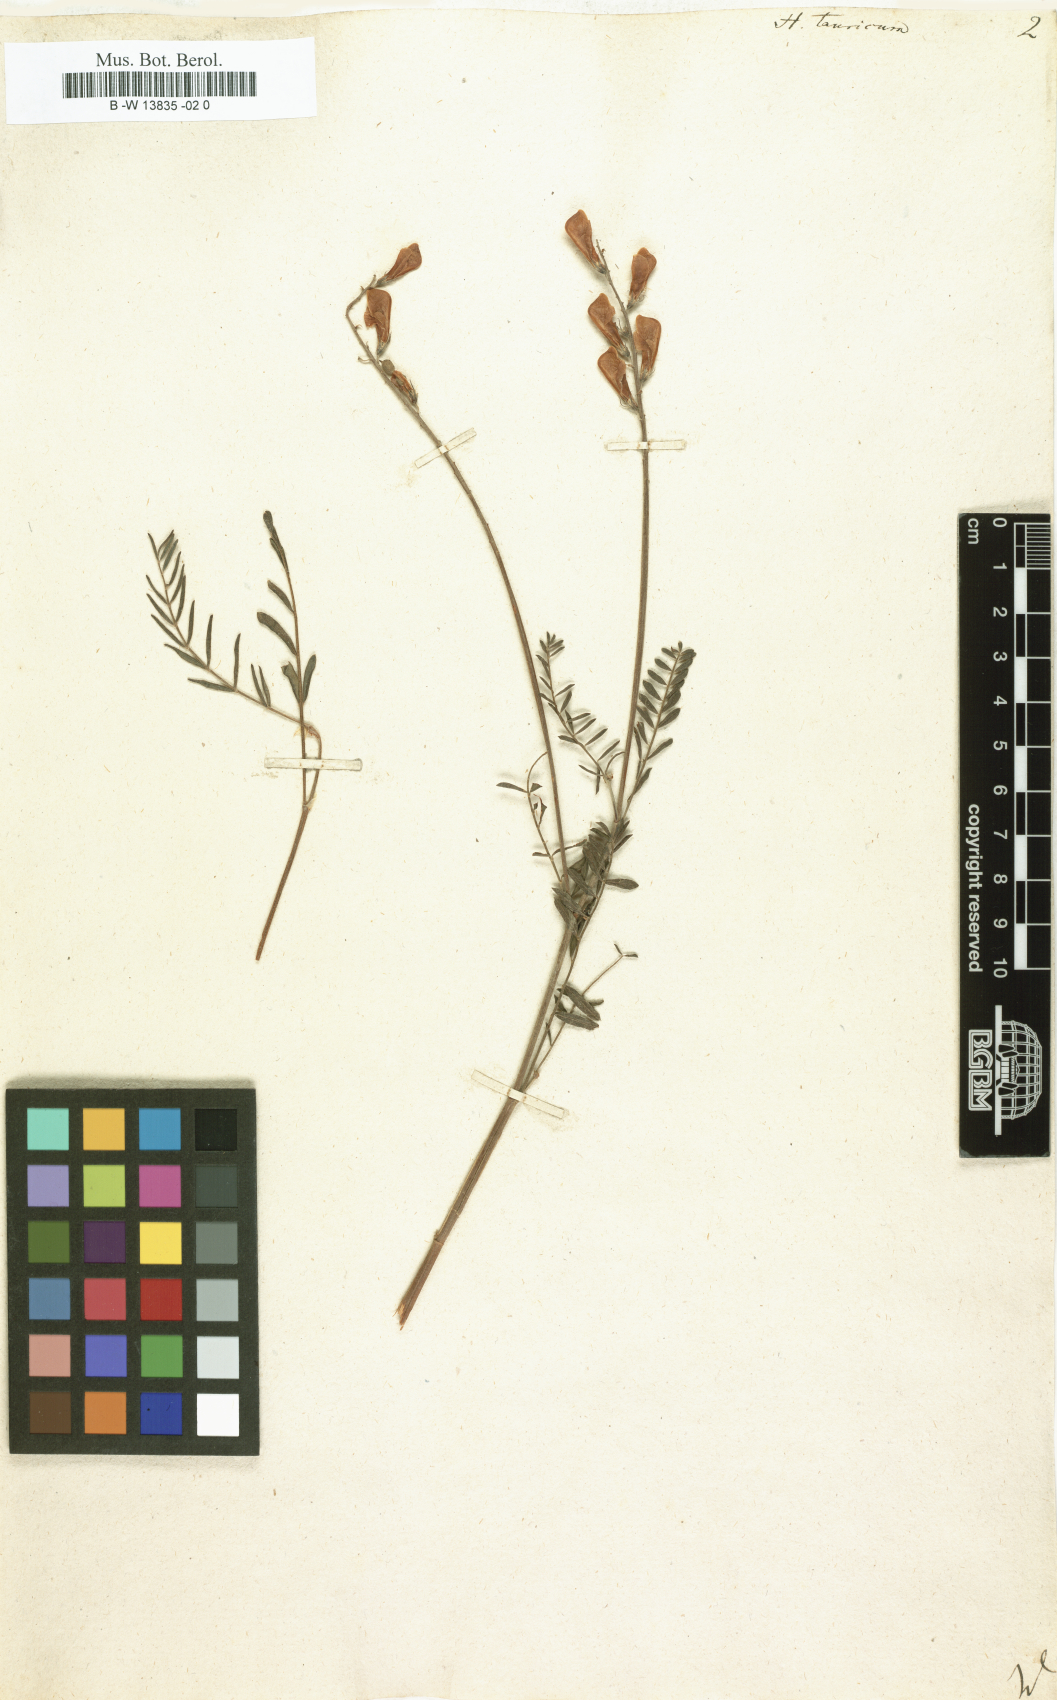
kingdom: Plantae
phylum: Tracheophyta
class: Magnoliopsida
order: Fabales
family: Fabaceae
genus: Hedysarum
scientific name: Hedysarum tauricum
